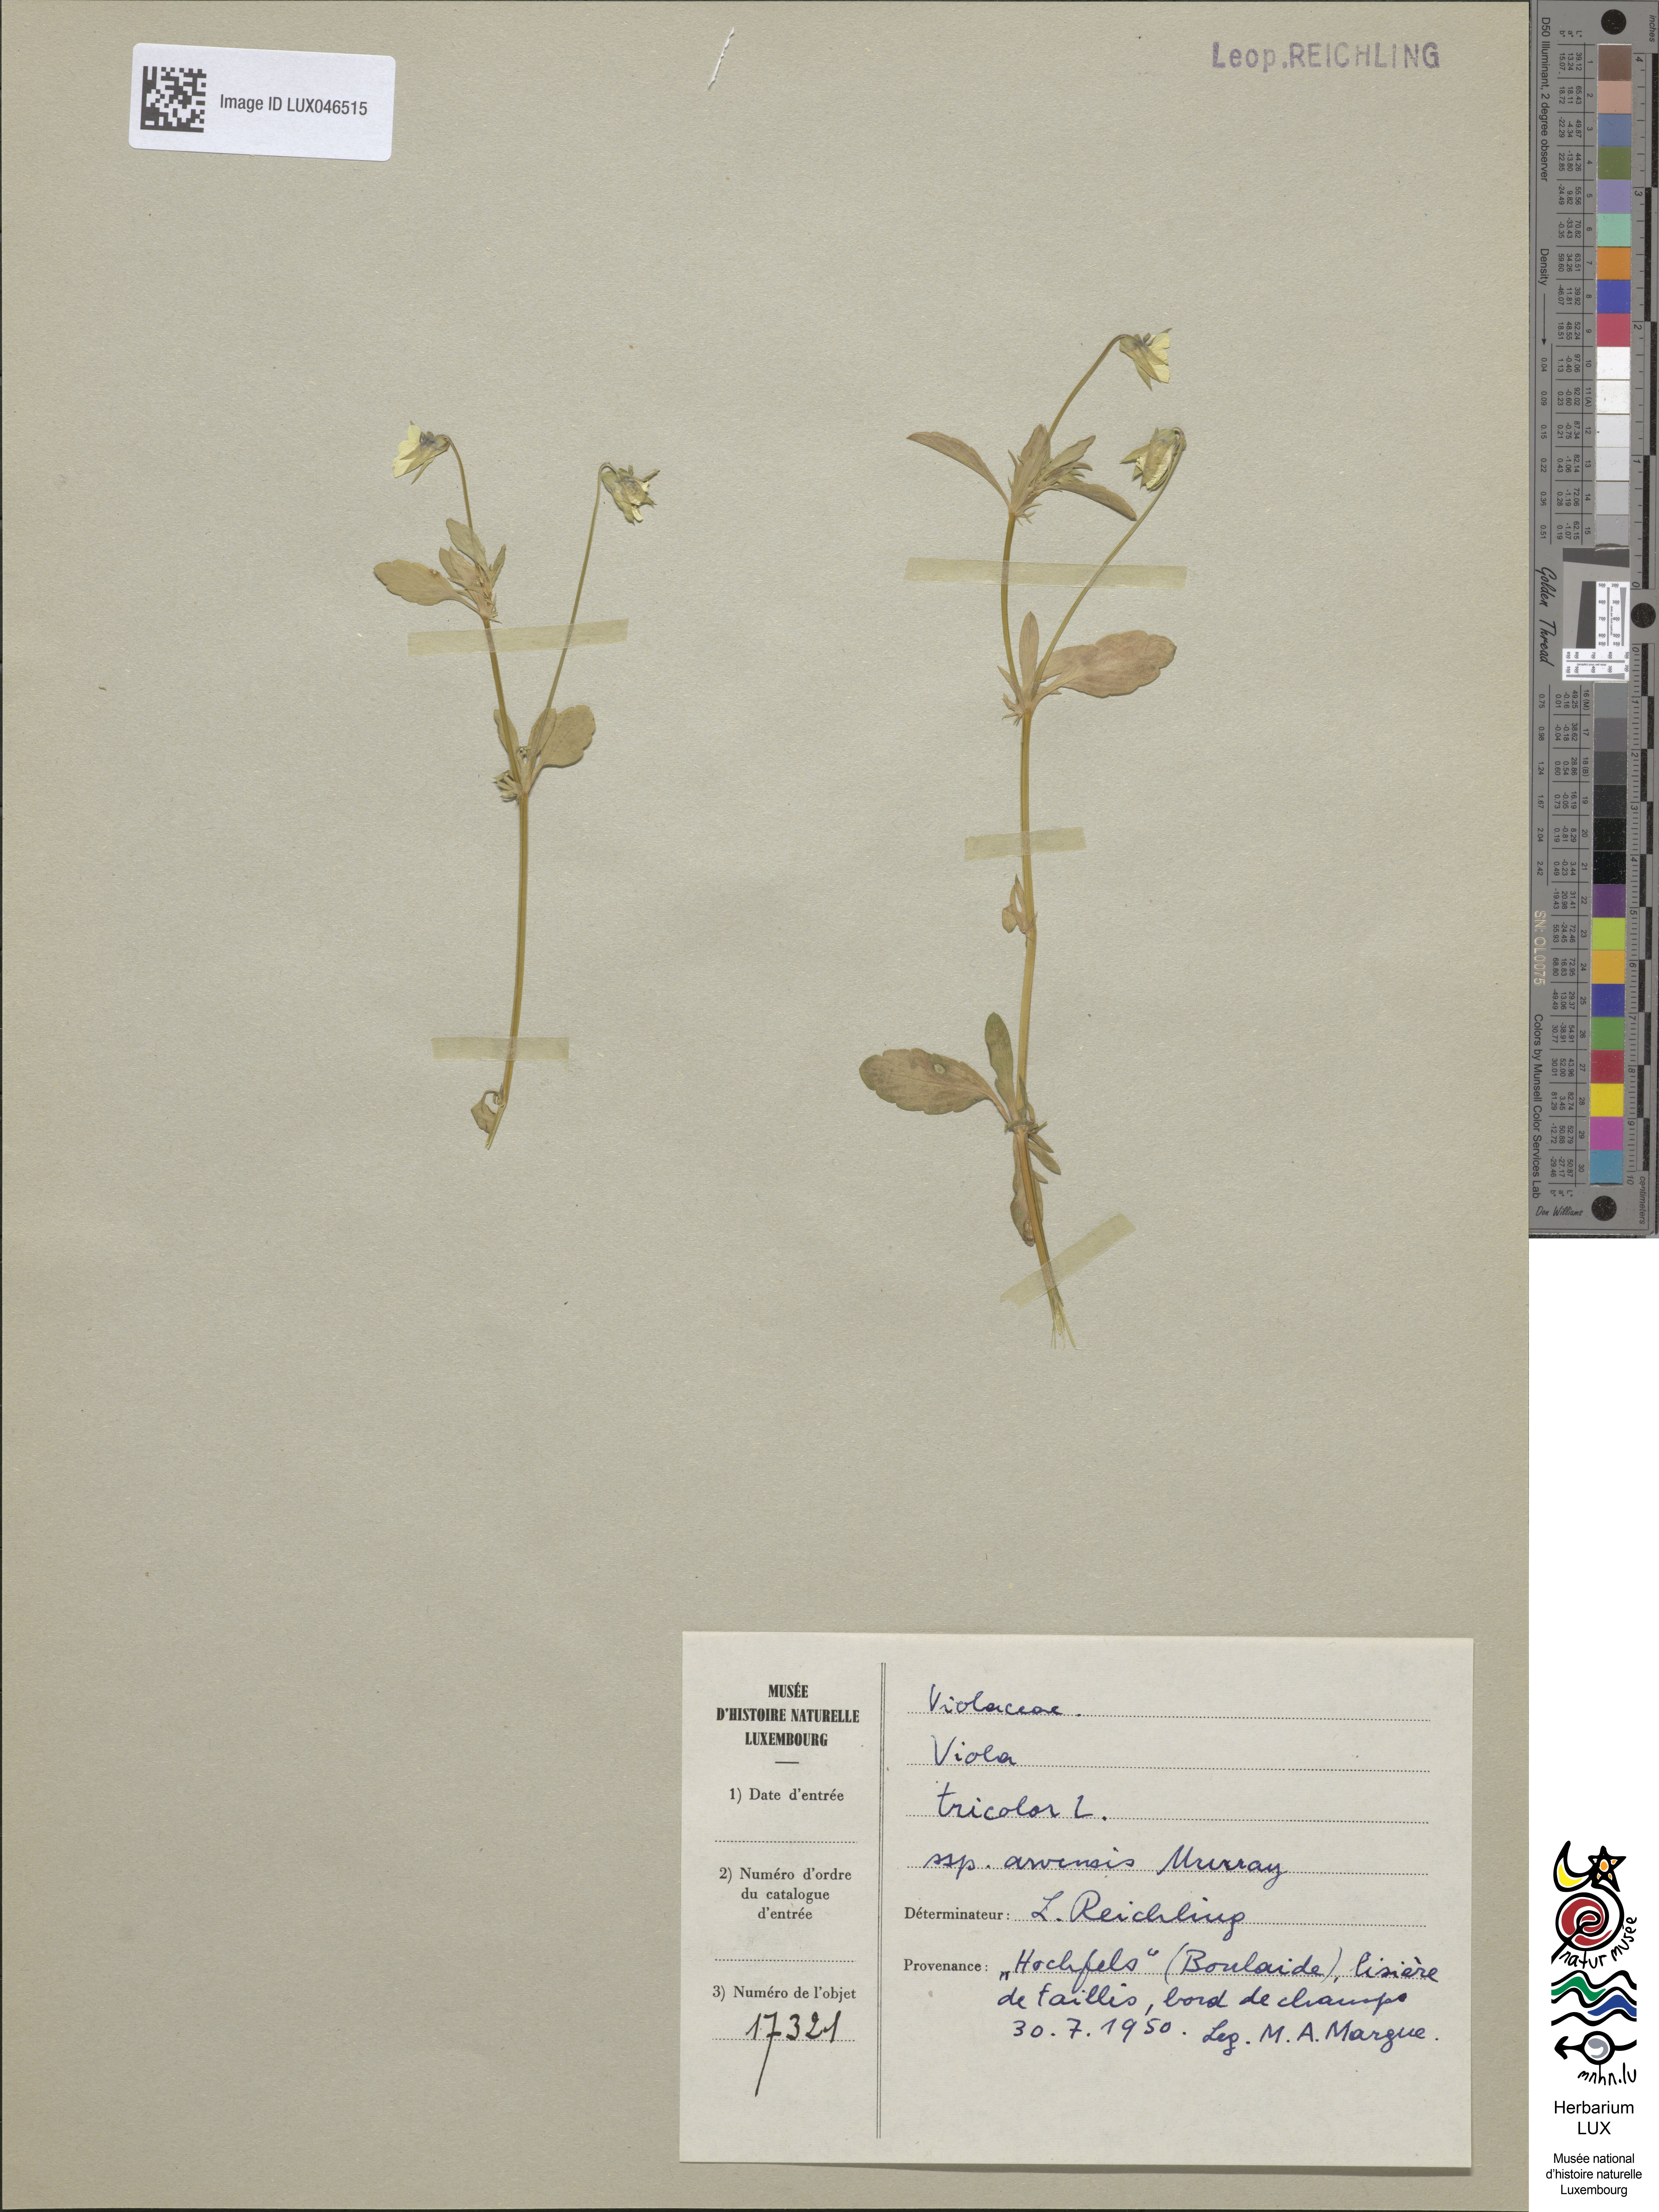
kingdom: Plantae
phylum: Tracheophyta
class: Magnoliopsida
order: Malpighiales
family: Violaceae
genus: Viola
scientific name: Viola arvensis
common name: Field pansy
